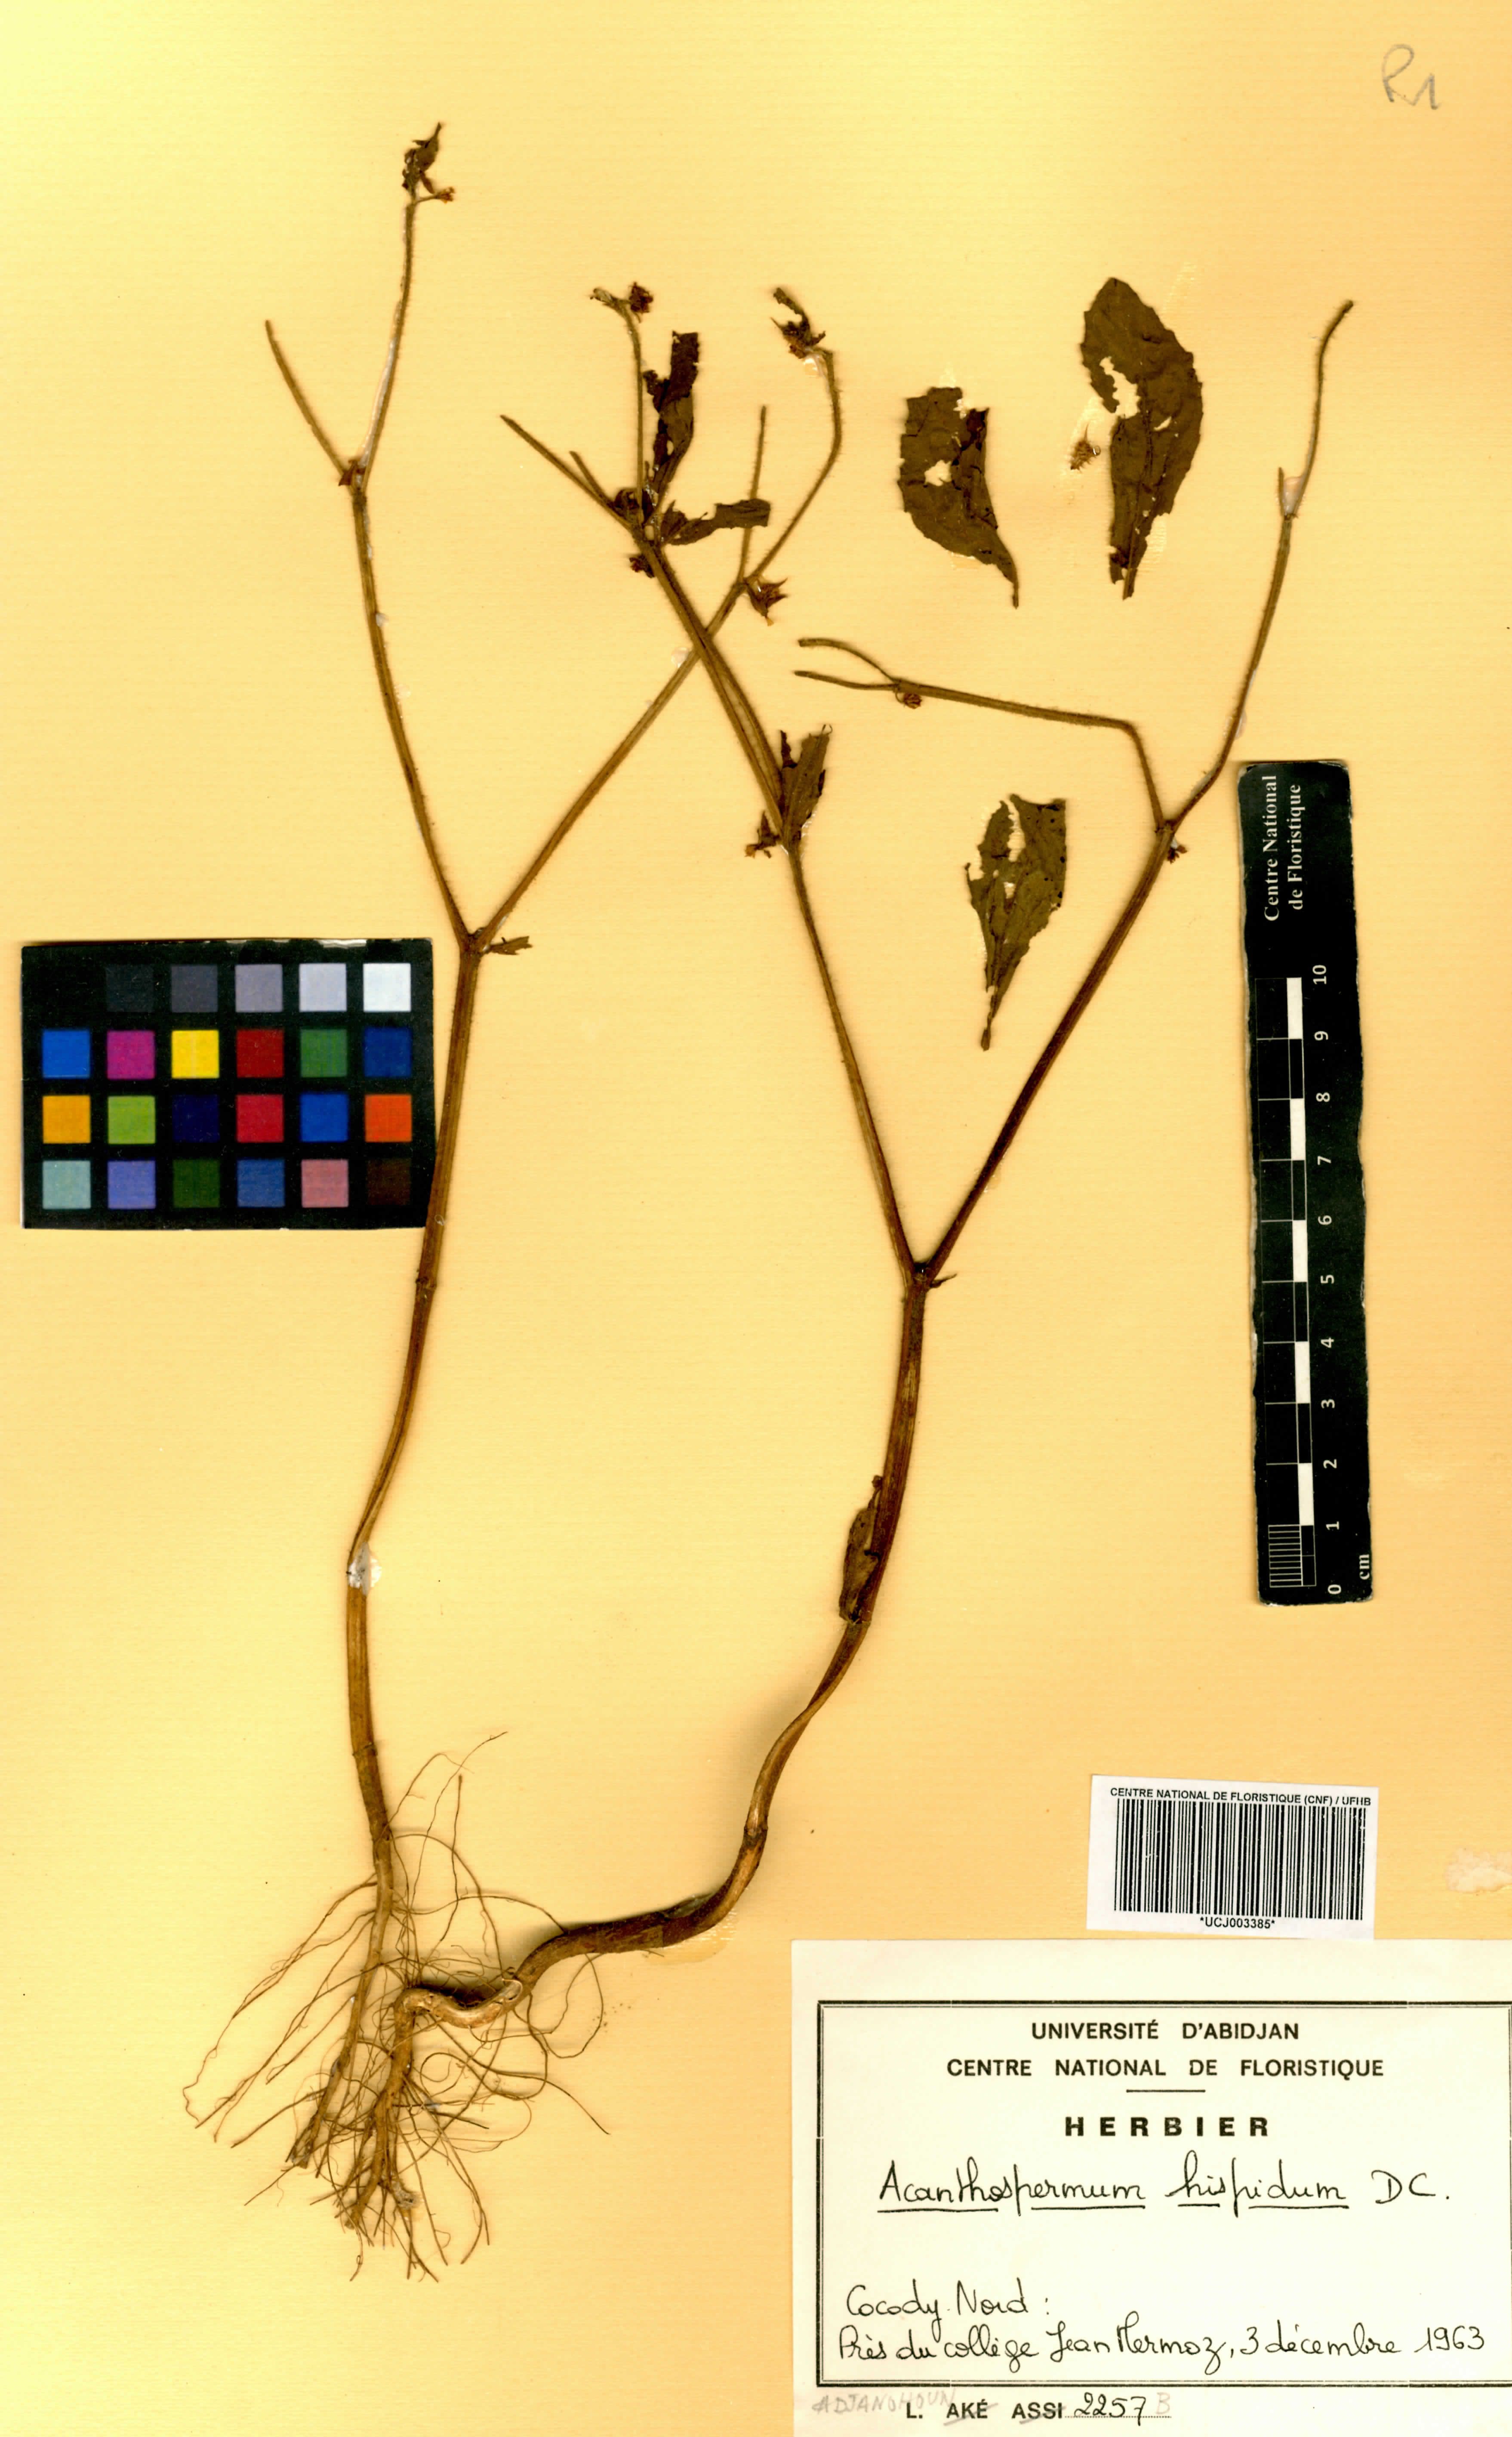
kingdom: Plantae
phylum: Tracheophyta
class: Magnoliopsida
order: Asterales
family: Asteraceae
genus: Acanthospermum
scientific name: Acanthospermum hispidum
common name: Hispid starbur
